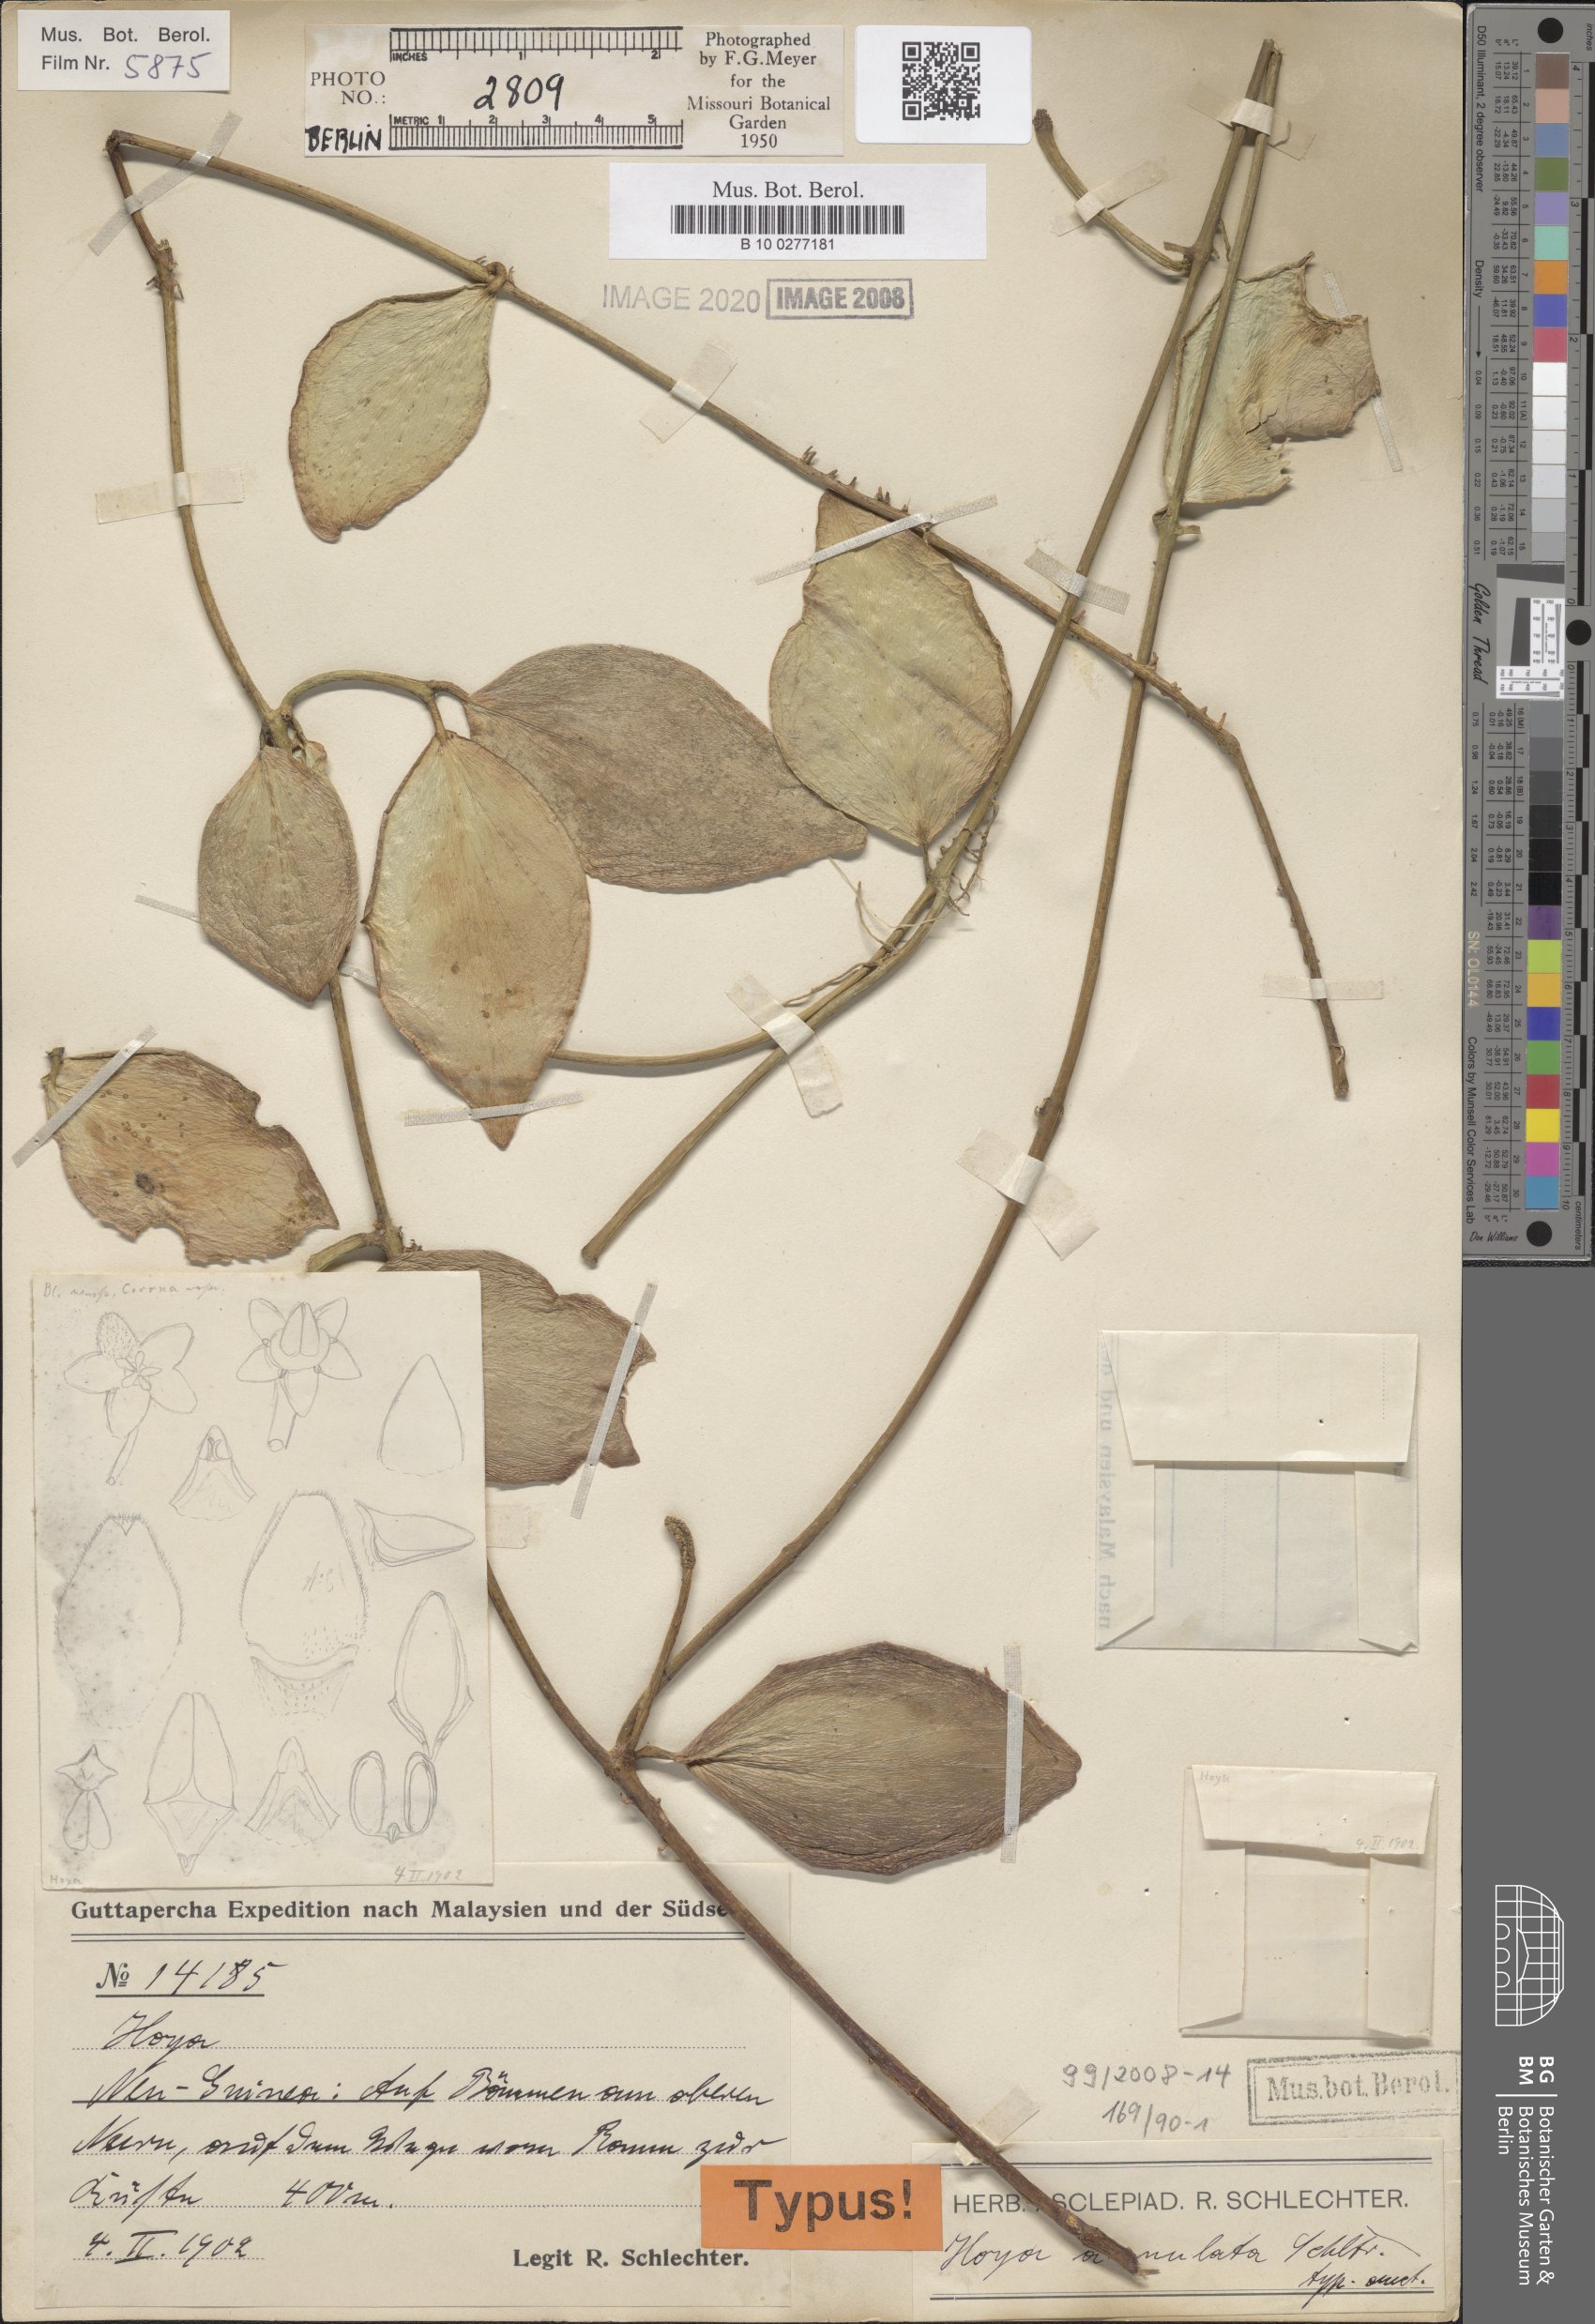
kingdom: Plantae
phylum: Tracheophyta
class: Magnoliopsida
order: Gentianales
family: Apocynaceae
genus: Hoya
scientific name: Hoya anulata
